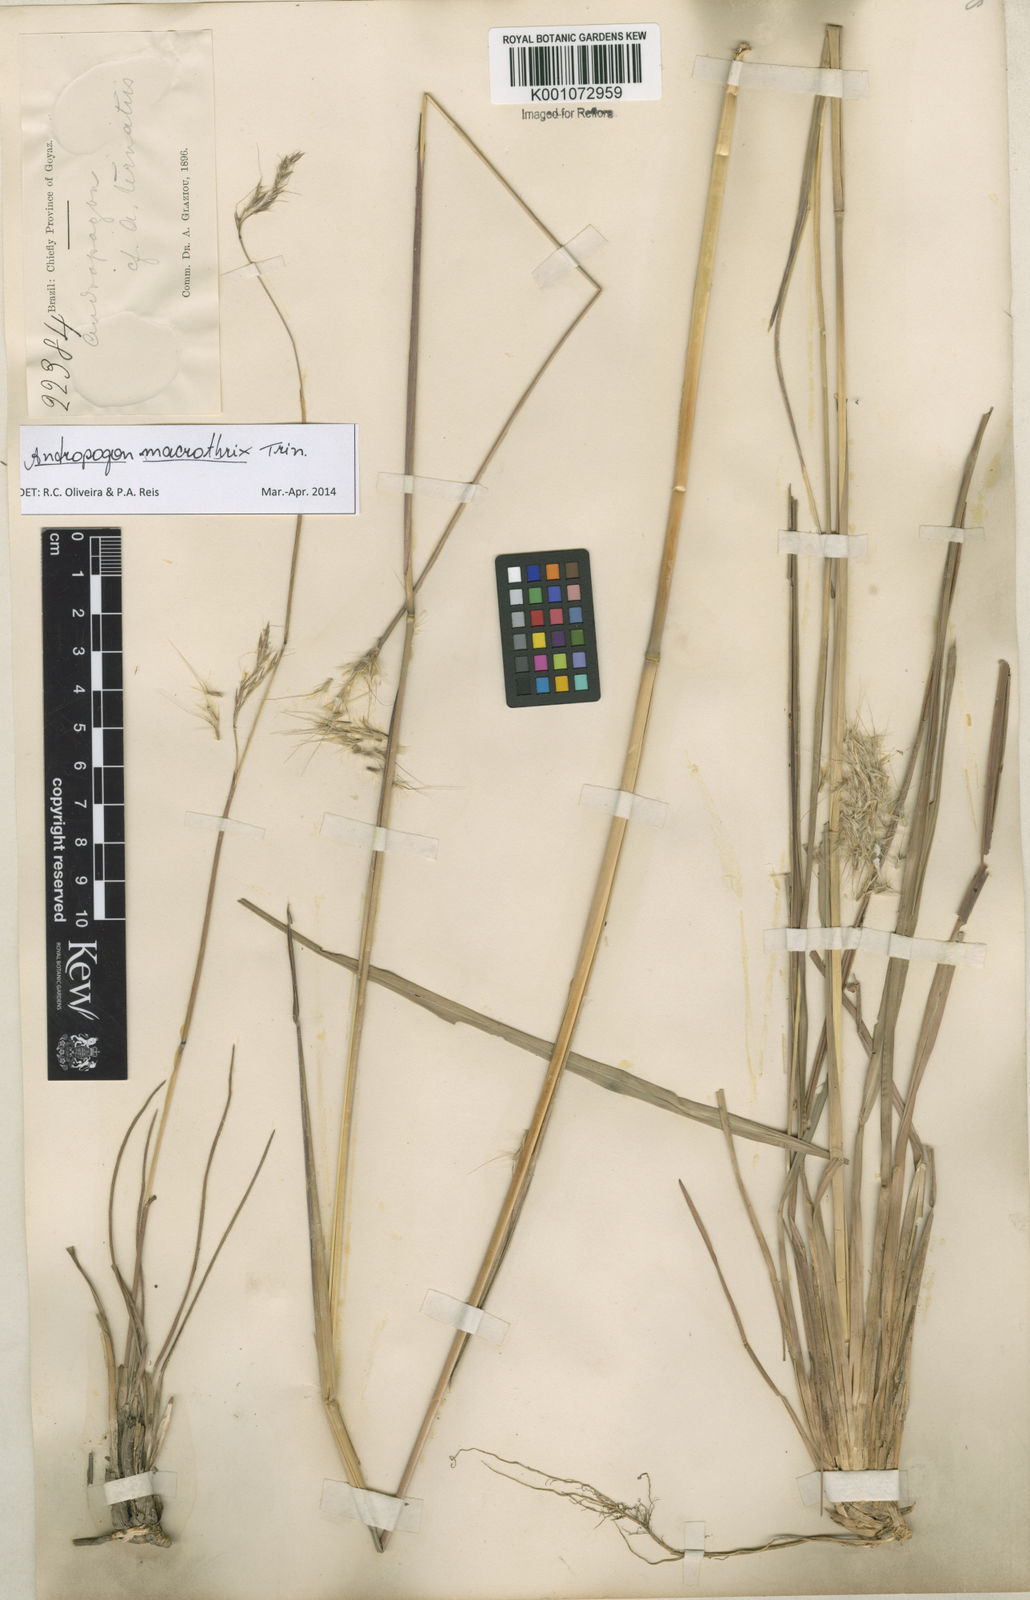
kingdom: Plantae
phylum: Tracheophyta
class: Liliopsida
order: Poales
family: Poaceae
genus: Andropogon
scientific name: Andropogon macrothrix
